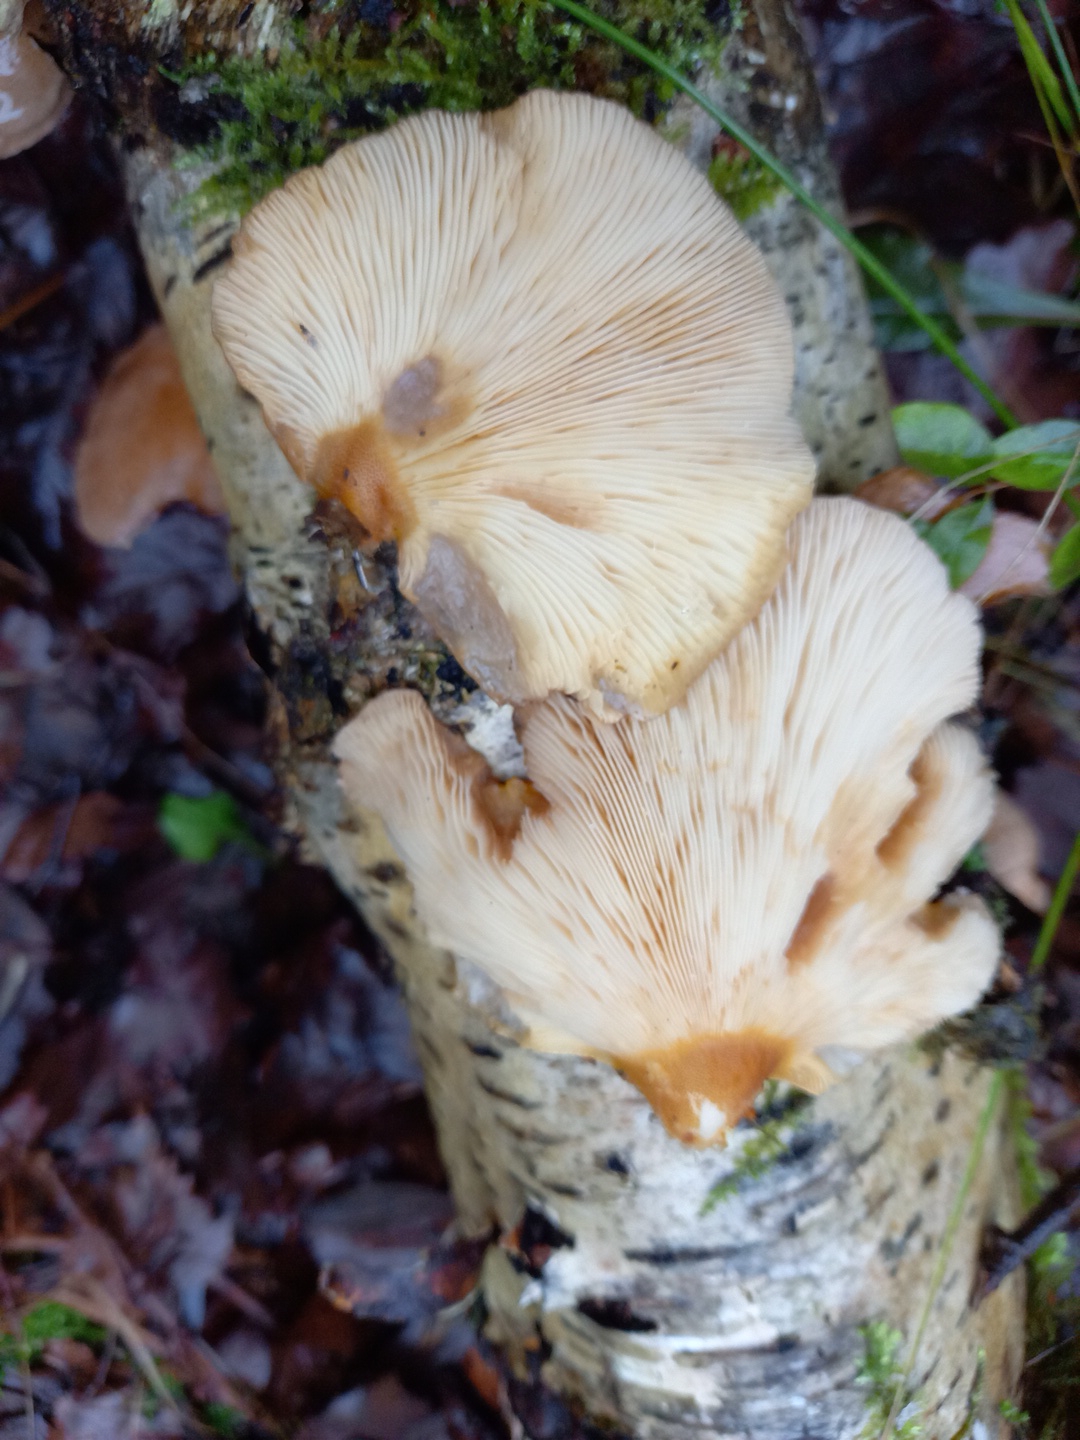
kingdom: Fungi
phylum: Basidiomycota
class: Agaricomycetes
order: Agaricales
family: Sarcomyxaceae
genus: Sarcomyxa
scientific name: Sarcomyxa serotina
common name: gummihat
